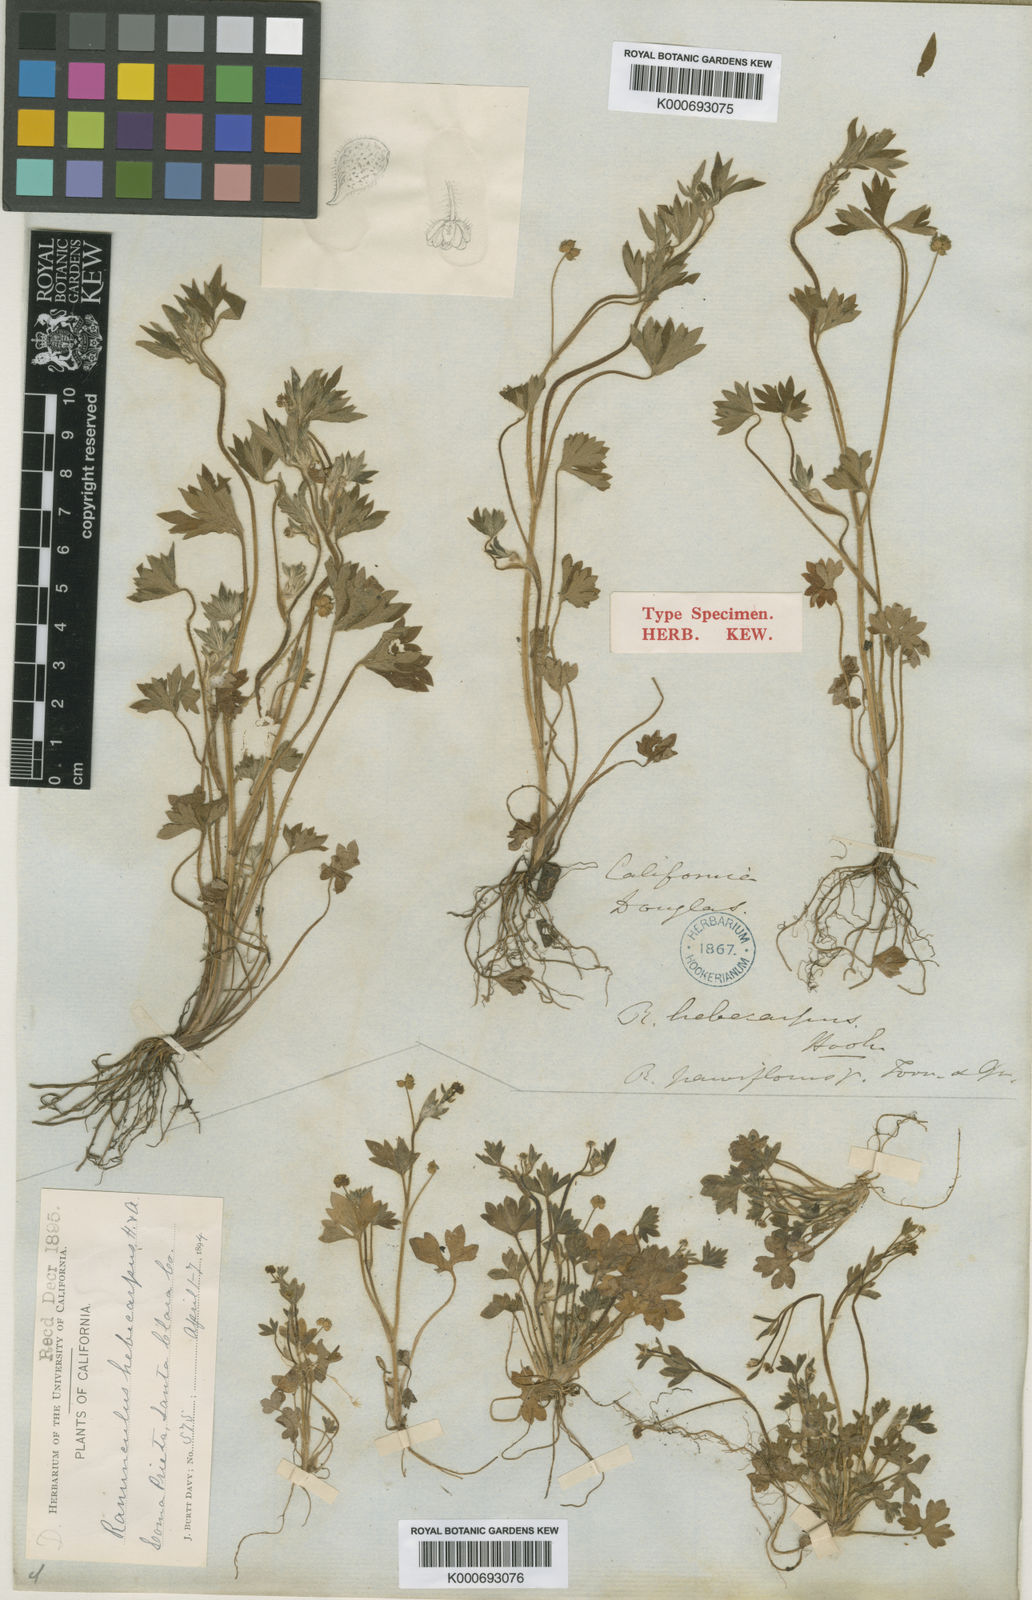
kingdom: Plantae
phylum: Tracheophyta
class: Magnoliopsida
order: Ranunculales
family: Ranunculaceae
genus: Ranunculus
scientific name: Ranunculus hebecarpus
